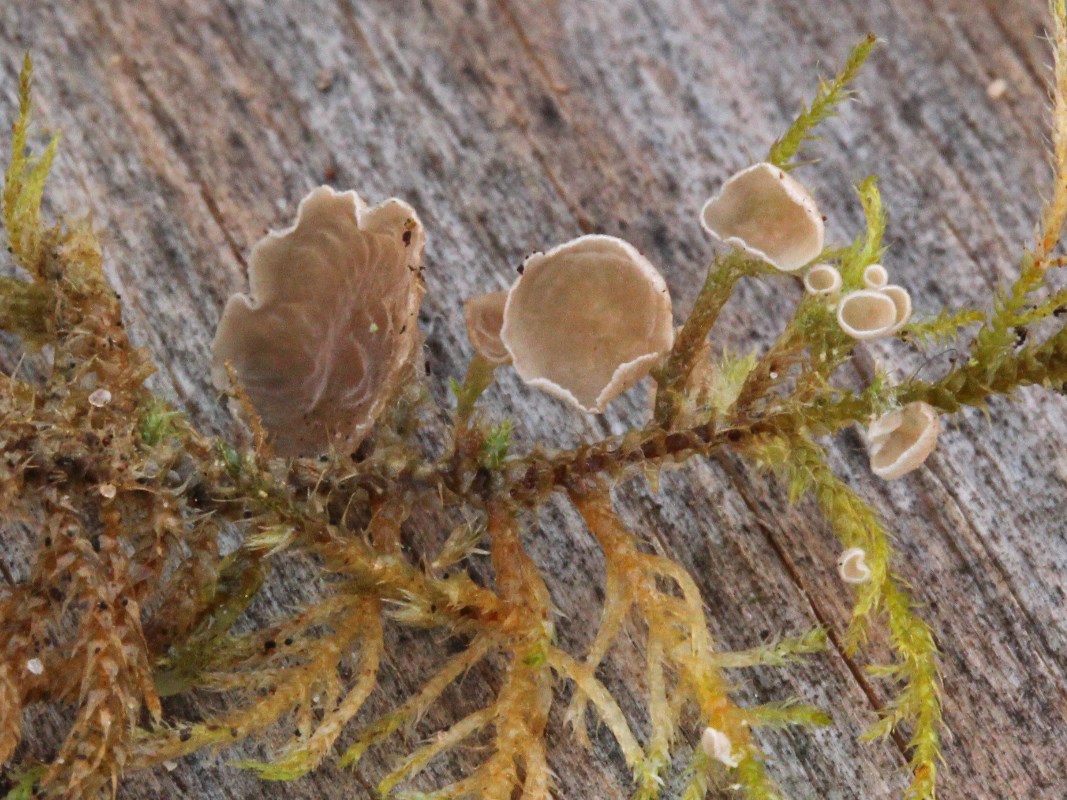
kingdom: Fungi
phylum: Basidiomycota
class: Agaricomycetes
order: Agaricales
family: Hygrophoraceae
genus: Arrhenia
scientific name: Arrhenia retiruga
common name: lille fontænehat
